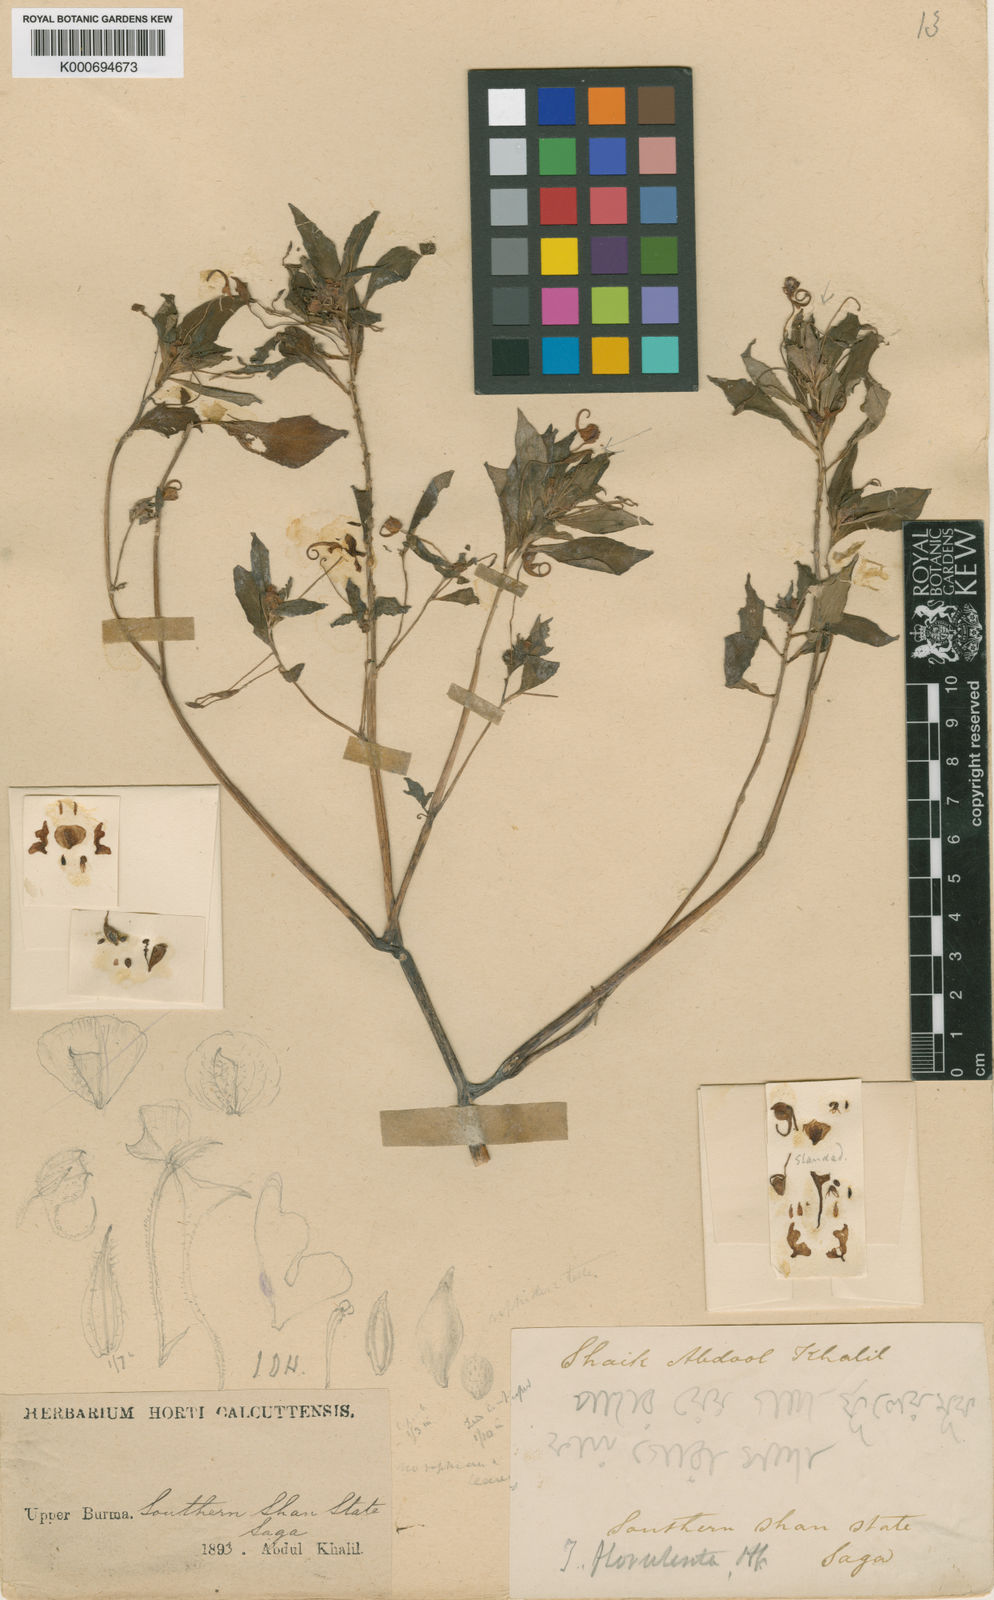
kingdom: Plantae
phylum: Tracheophyta
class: Magnoliopsida
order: Ericales
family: Balsaminaceae
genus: Impatiens
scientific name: Impatiens florulenta
